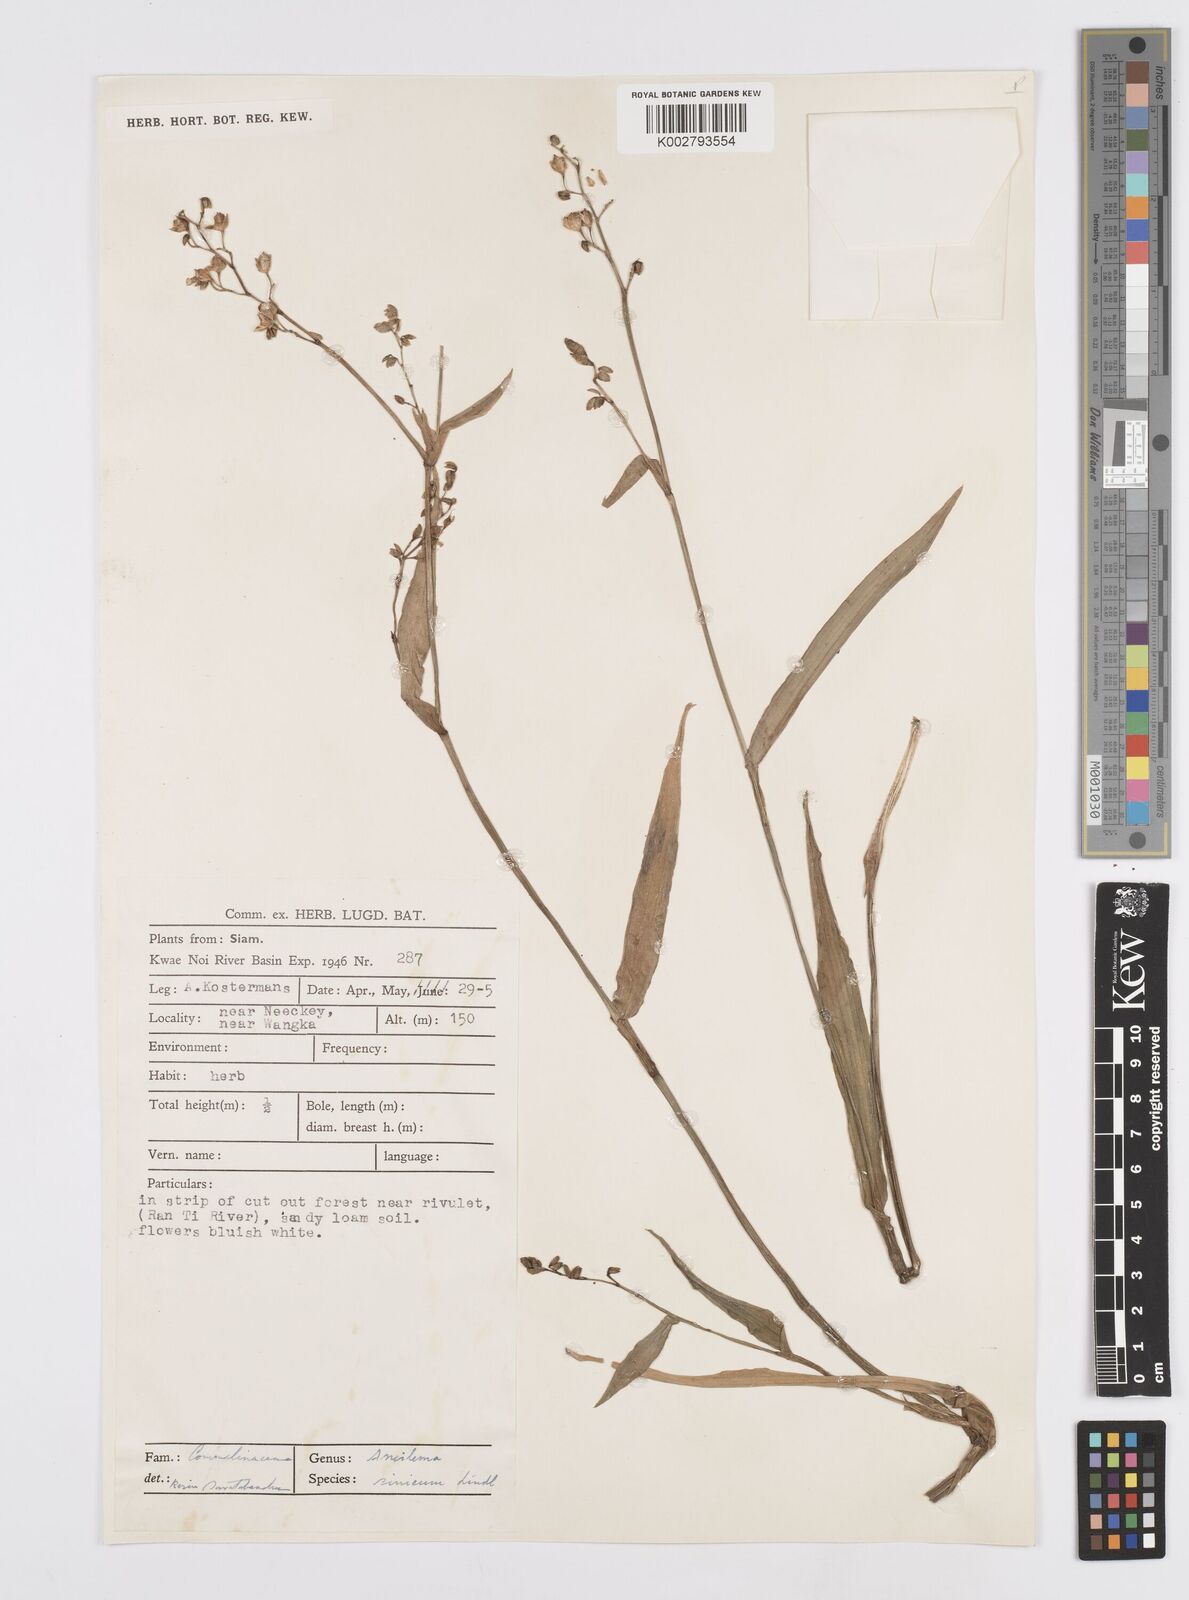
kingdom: Plantae
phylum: Tracheophyta
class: Liliopsida
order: Commelinales
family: Commelinaceae
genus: Murdannia
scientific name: Murdannia simplex
